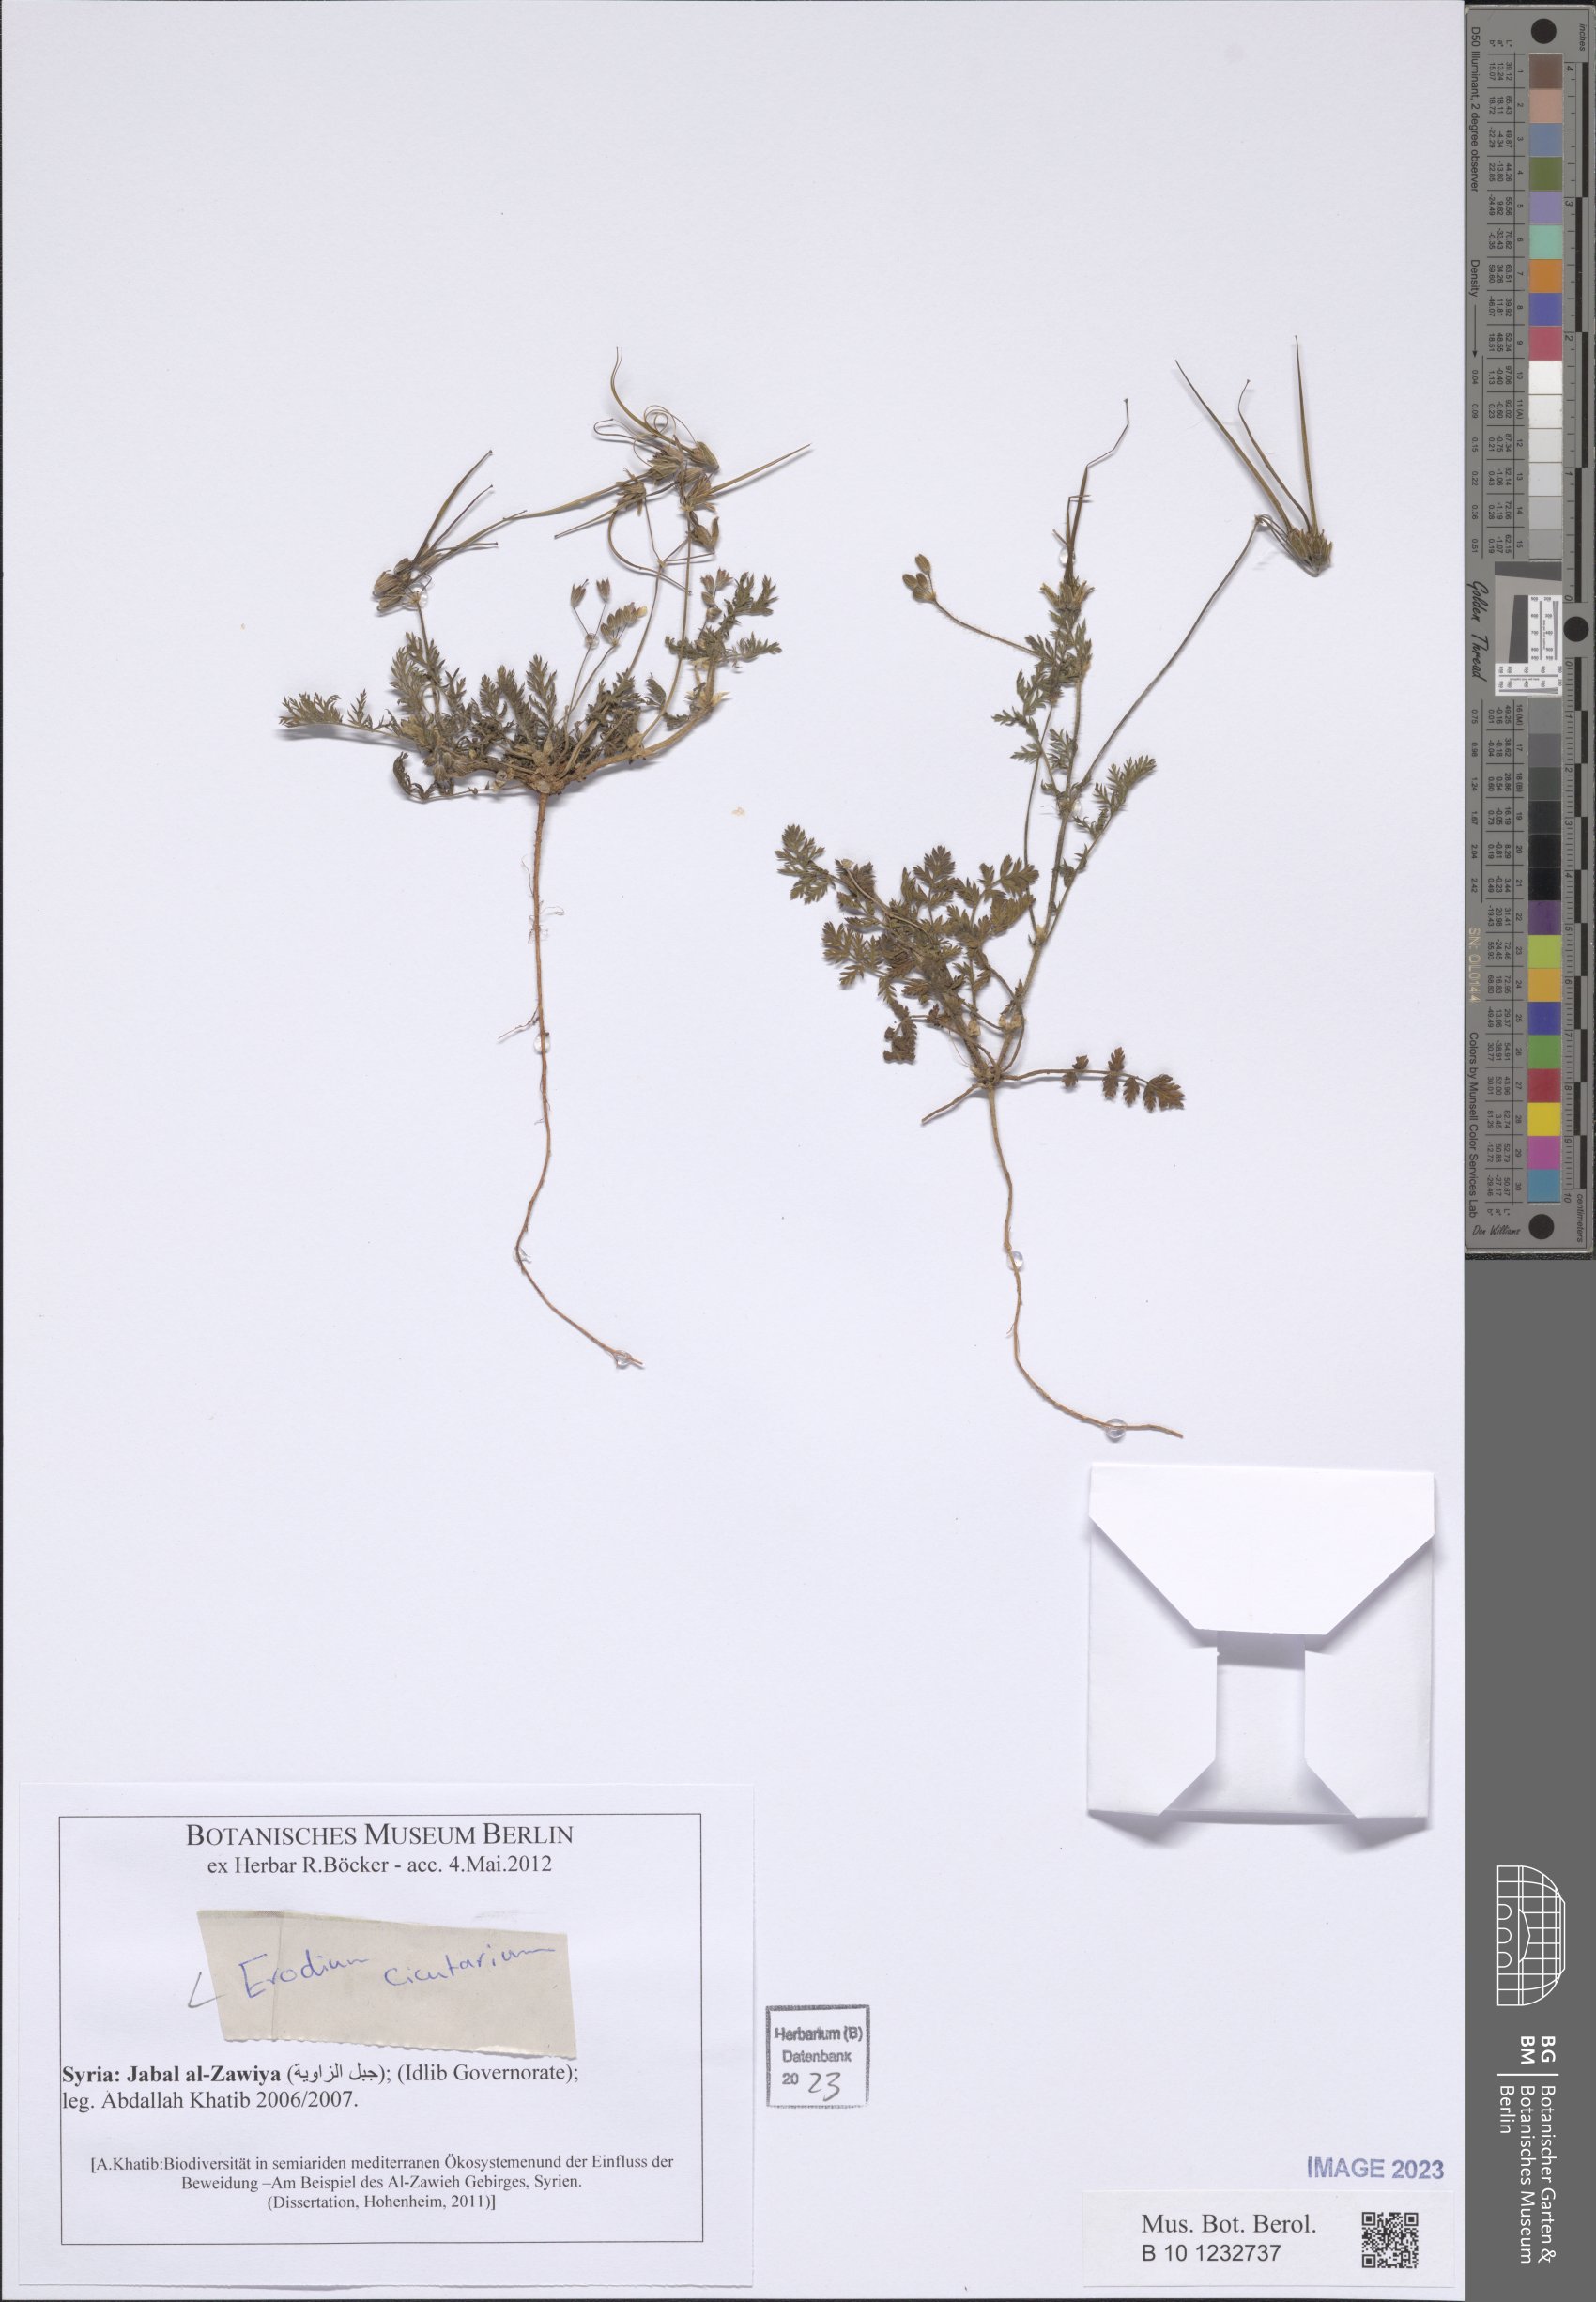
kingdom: Plantae
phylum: Tracheophyta
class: Magnoliopsida
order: Geraniales
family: Geraniaceae
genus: Erodium
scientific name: Erodium cicutarium
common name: Common stork's-bill
